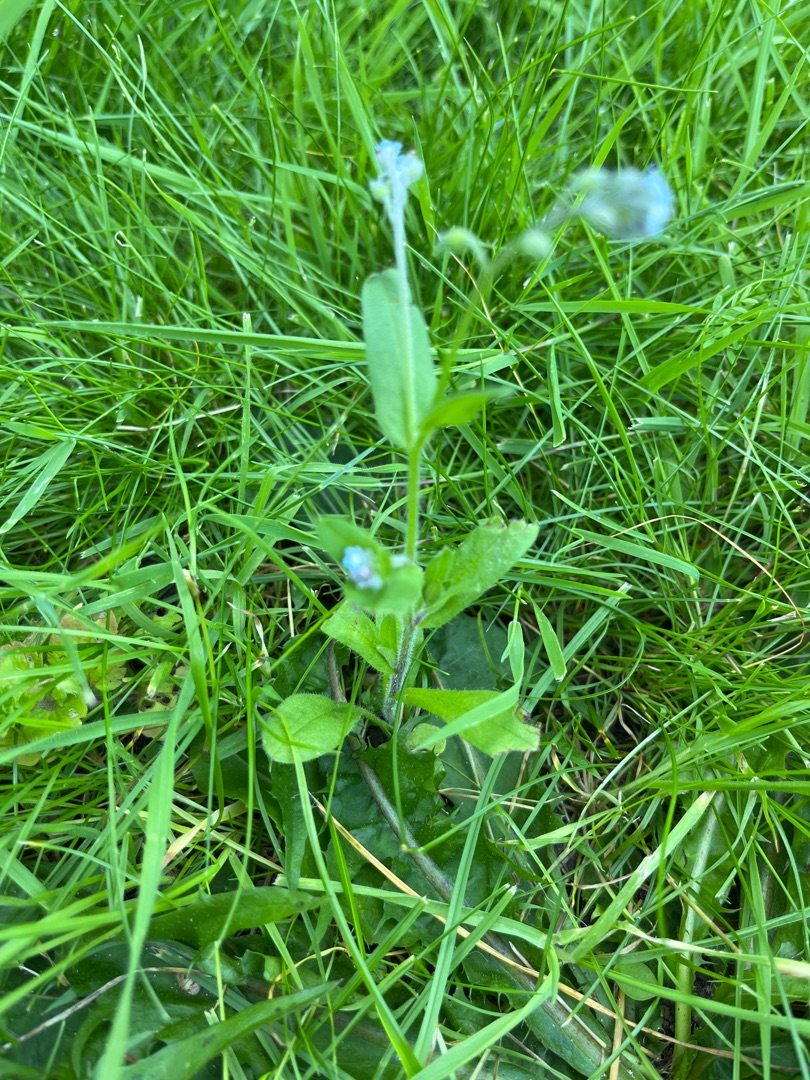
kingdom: Plantae
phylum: Tracheophyta
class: Magnoliopsida
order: Boraginales
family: Boraginaceae
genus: Myosotis
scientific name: Myosotis arvensis
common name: Mark-forglemmigej
